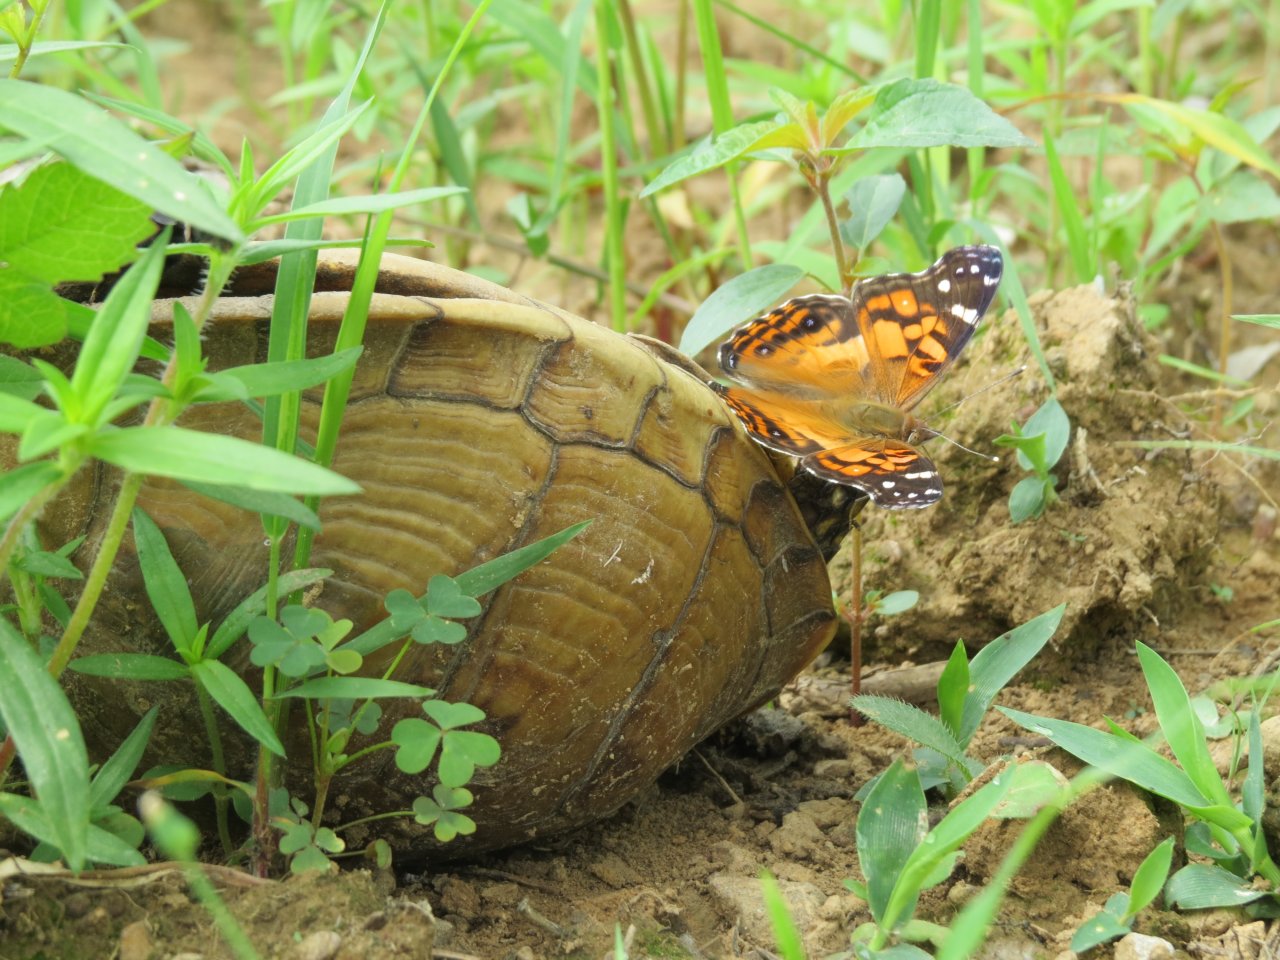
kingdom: Animalia
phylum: Arthropoda
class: Insecta
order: Lepidoptera
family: Nymphalidae
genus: Vanessa
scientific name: Vanessa virginiensis
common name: American Lady
